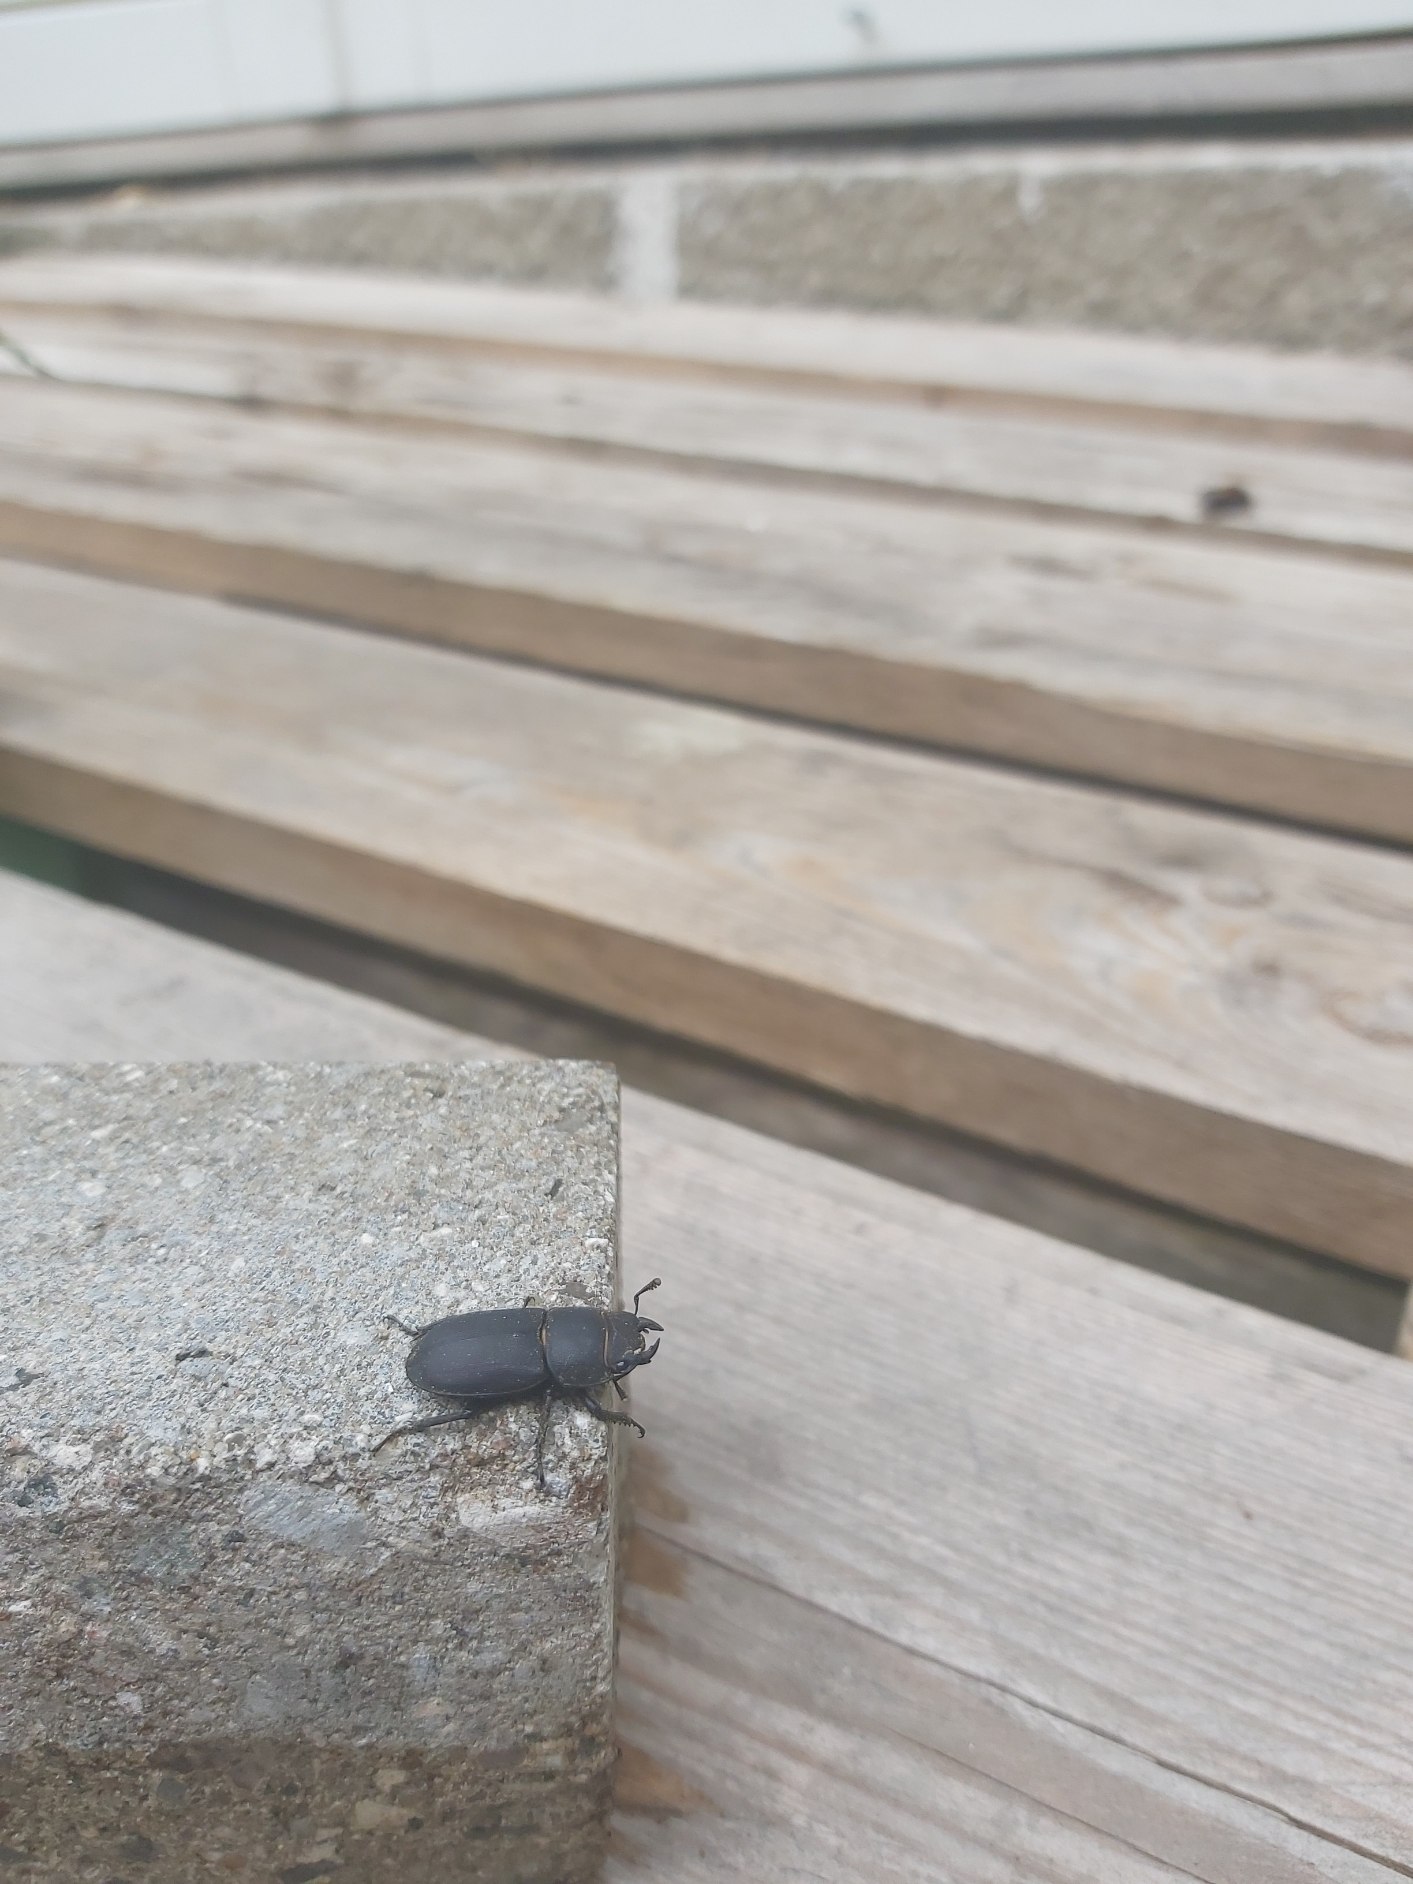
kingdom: Animalia
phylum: Arthropoda
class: Insecta
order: Coleoptera
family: Lucanidae
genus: Dorcus
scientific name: Dorcus parallelipipedus
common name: Bøghjort
